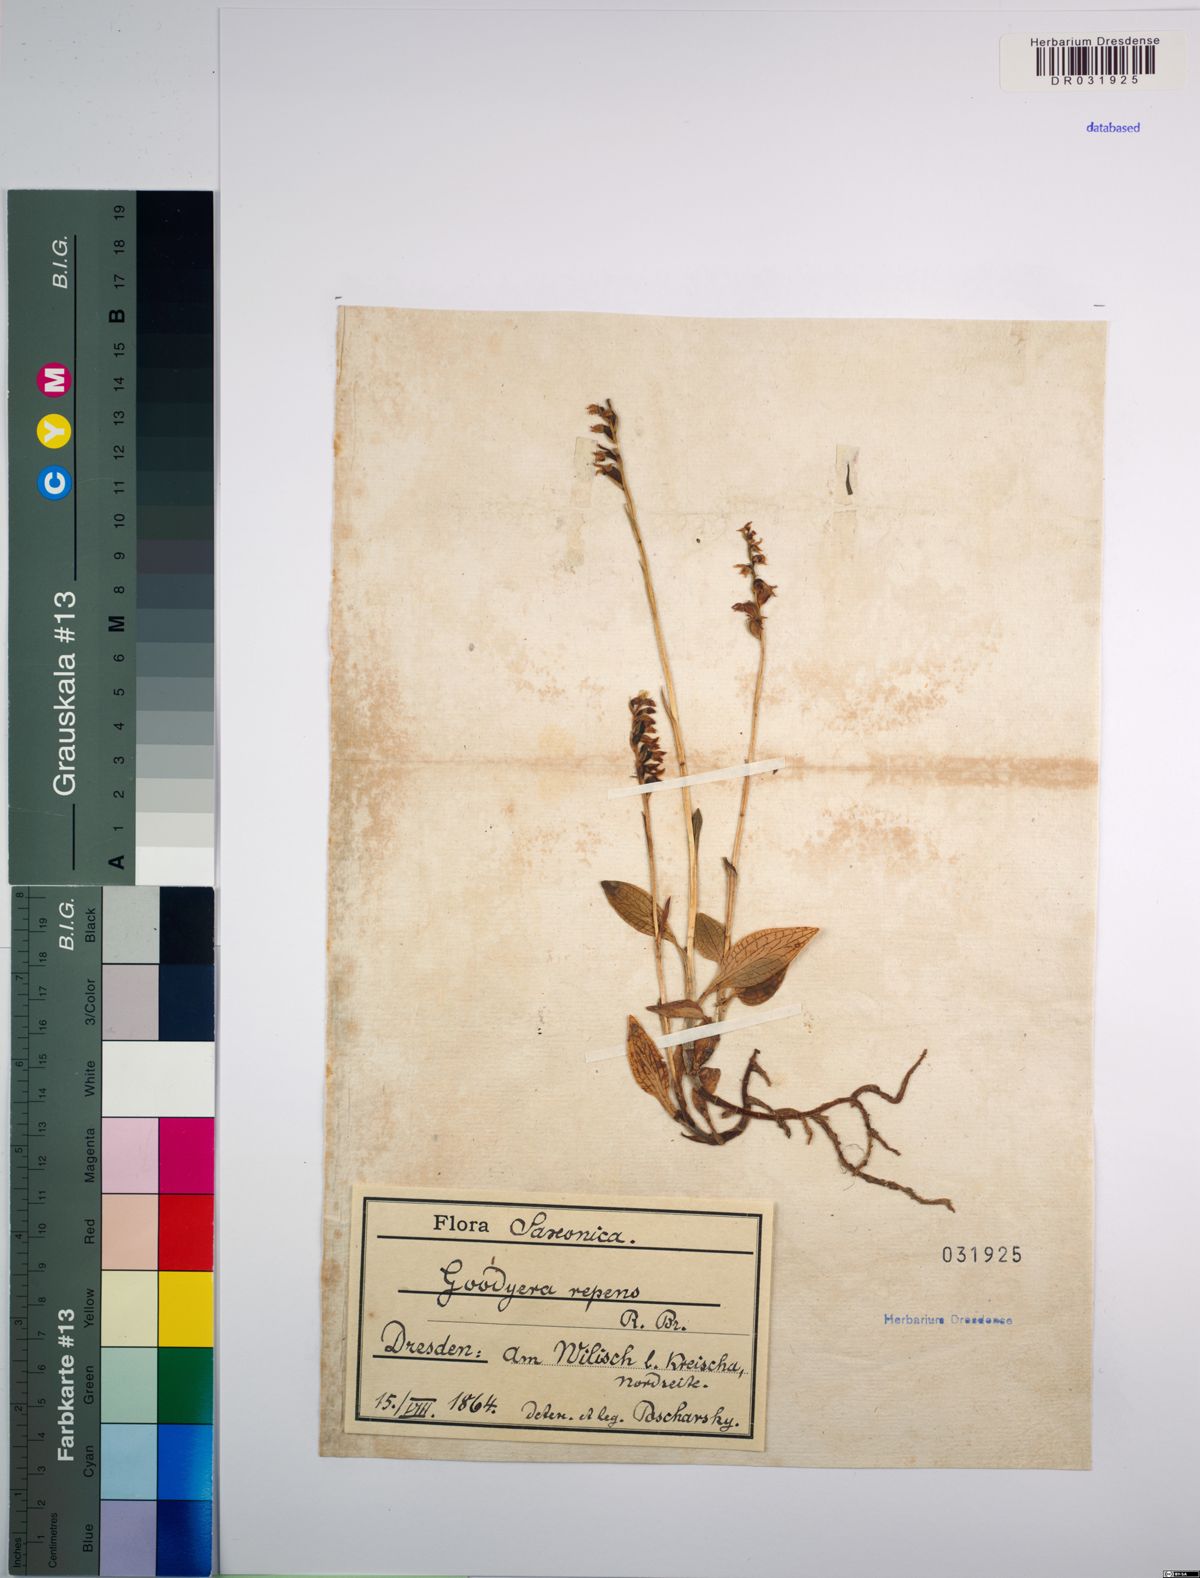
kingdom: Plantae
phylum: Tracheophyta
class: Liliopsida
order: Asparagales
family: Orchidaceae
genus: Goodyera
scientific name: Goodyera repens
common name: Creeping lady's-tresses
